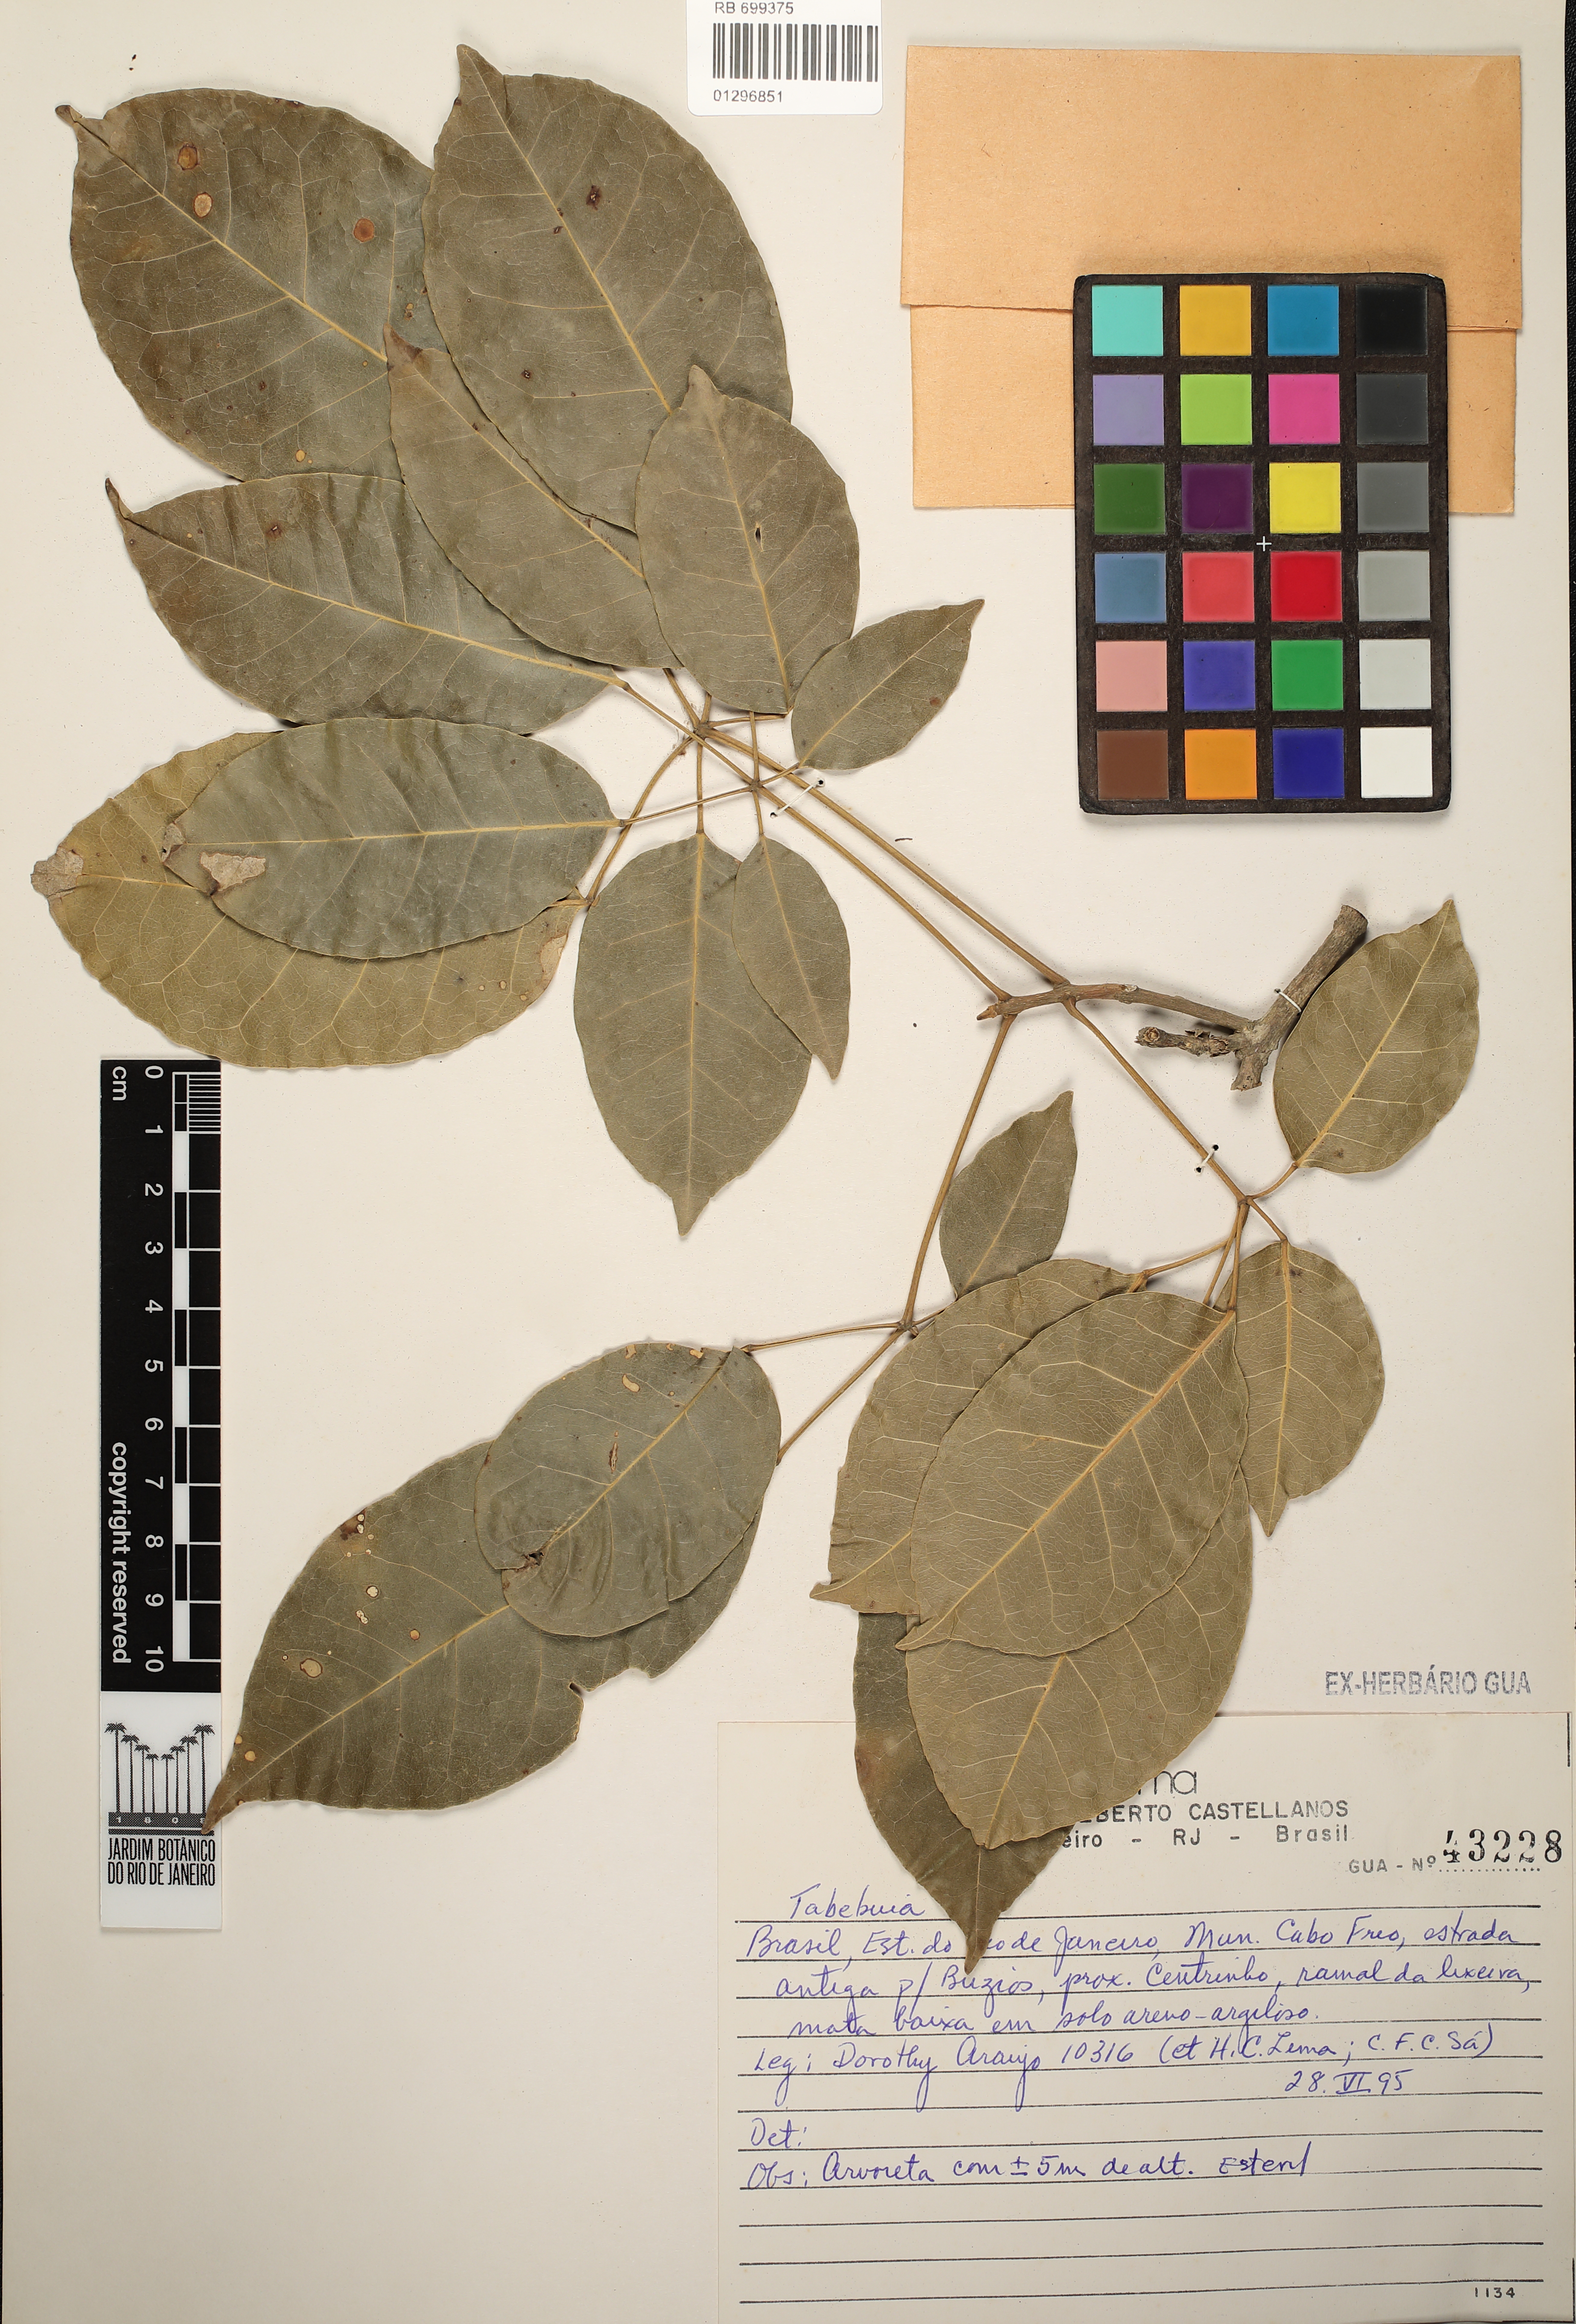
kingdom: Plantae
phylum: Tracheophyta
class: Magnoliopsida
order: Lamiales
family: Bignoniaceae
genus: Tabebuia
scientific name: Tabebuia
